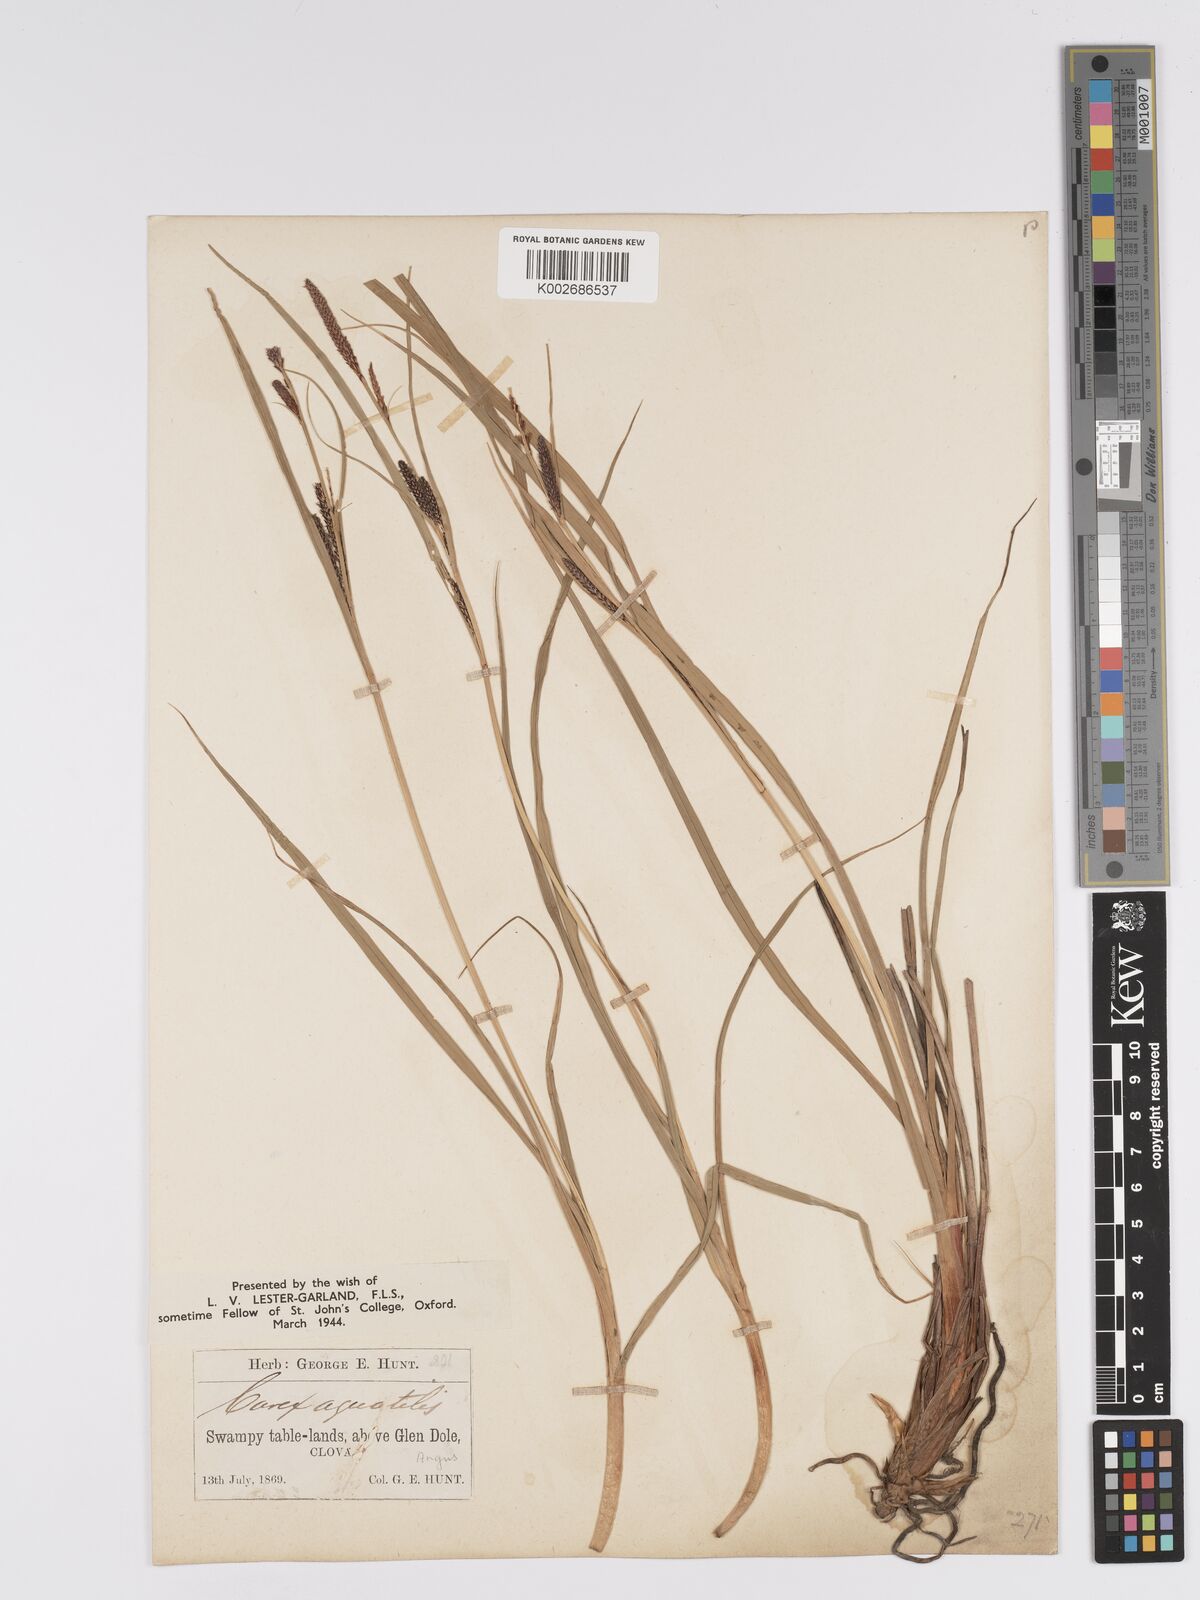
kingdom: Plantae
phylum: Tracheophyta
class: Liliopsida
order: Poales
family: Cyperaceae
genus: Carex
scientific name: Carex aquatilis
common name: Water sedge
